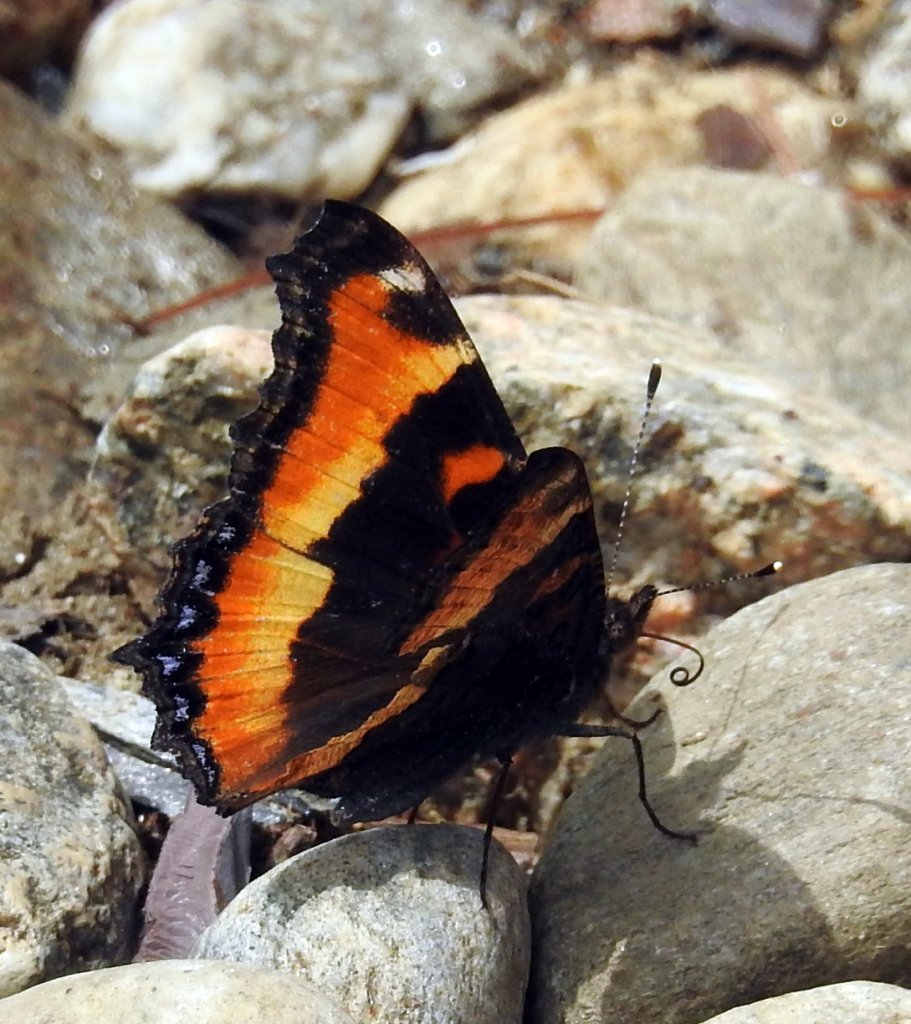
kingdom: Animalia
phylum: Arthropoda
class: Insecta
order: Lepidoptera
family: Nymphalidae
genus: Aglais
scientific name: Aglais milberti
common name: Milbert's Tortoiseshell
